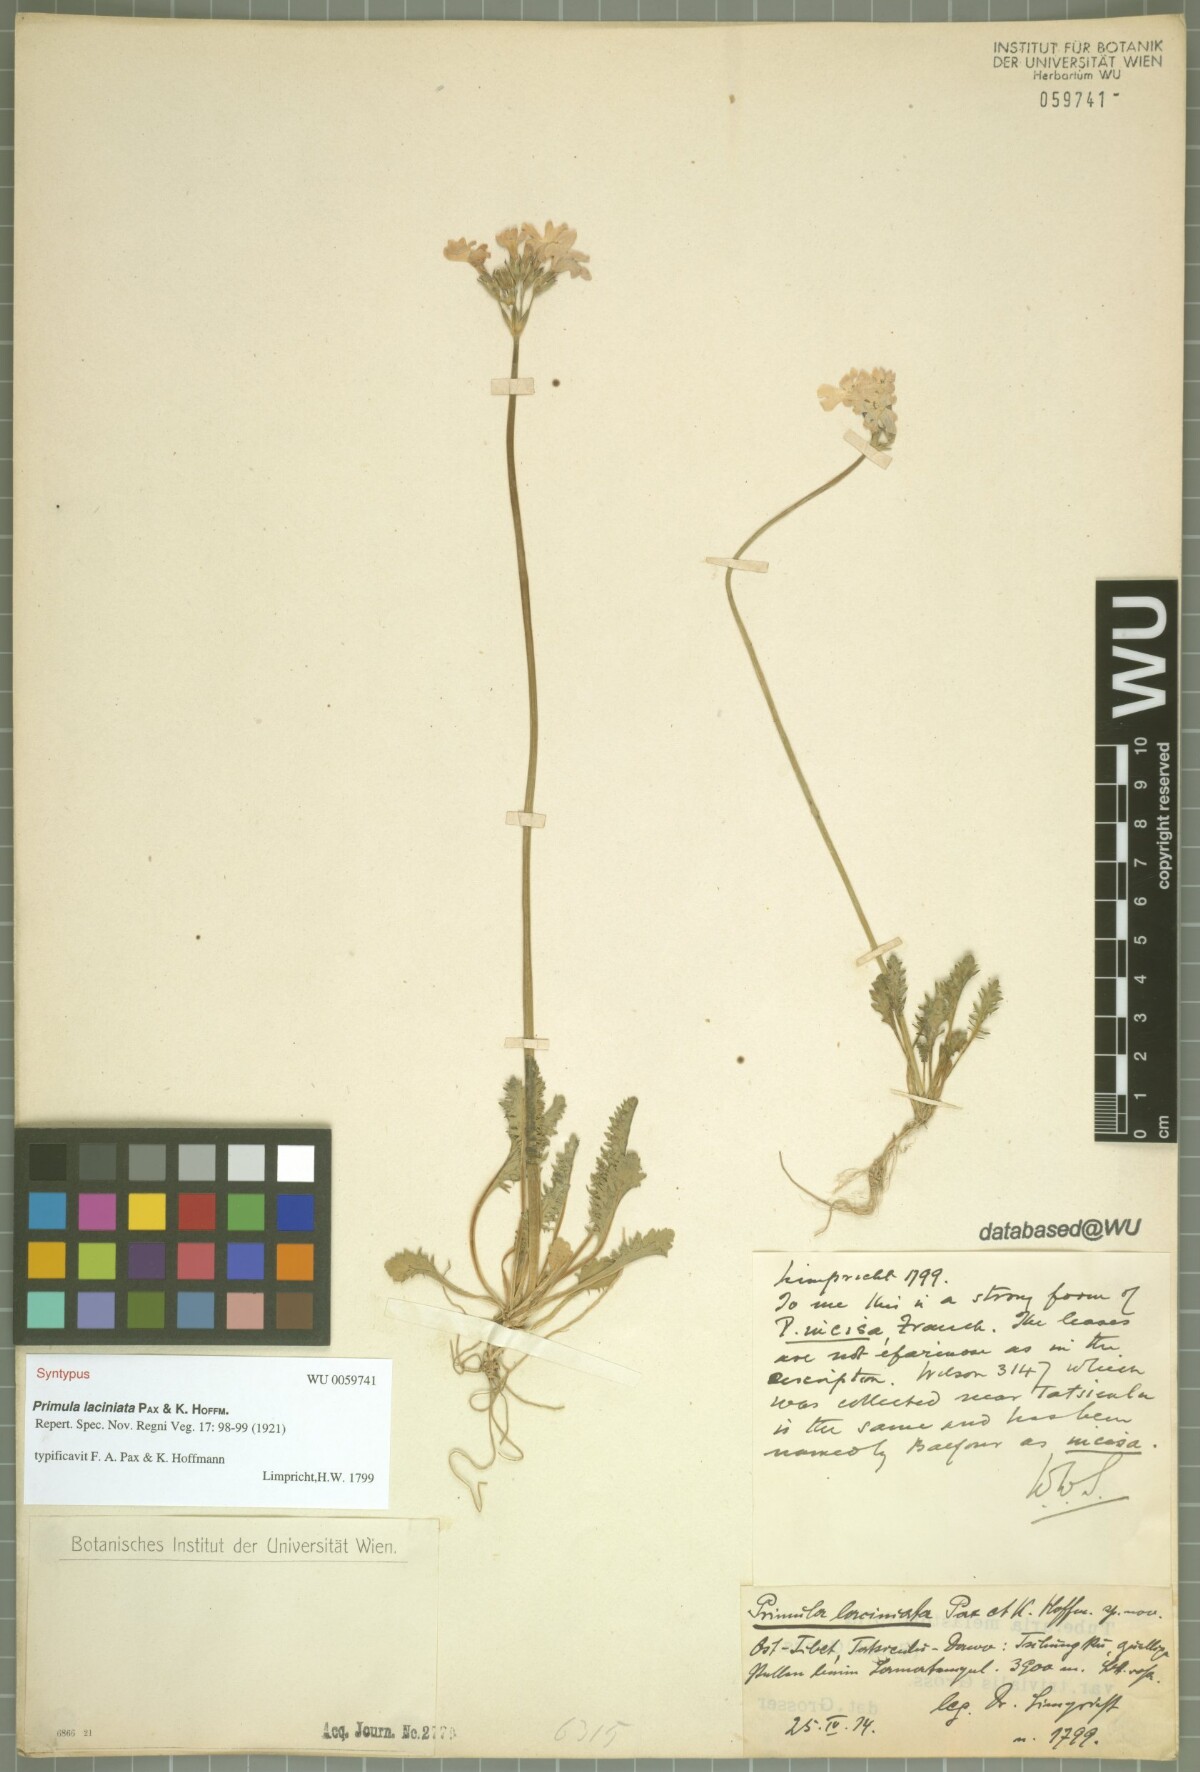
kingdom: Plantae
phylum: Tracheophyta
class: Magnoliopsida
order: Ericales
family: Primulaceae
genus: Primula
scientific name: Primula laciniata
